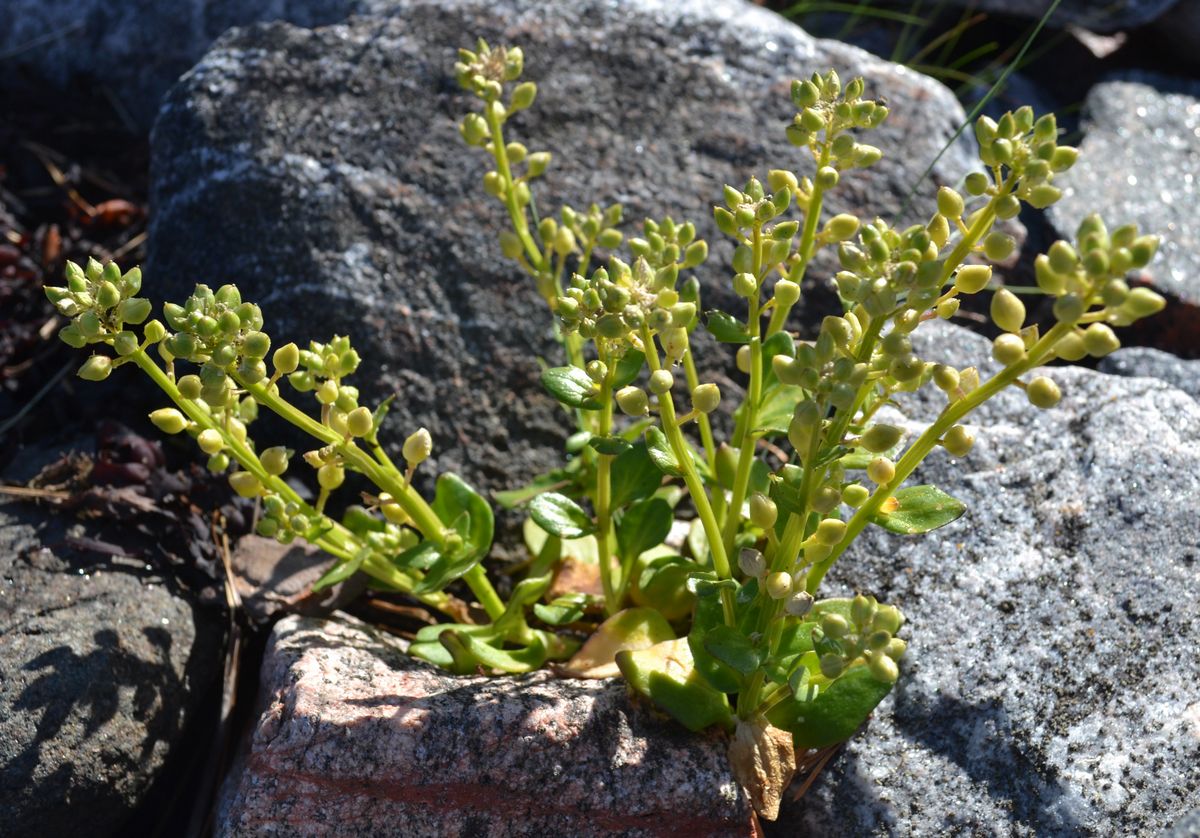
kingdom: Plantae
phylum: Tracheophyta
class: Magnoliopsida
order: Brassicales
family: Brassicaceae
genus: Cochlearia
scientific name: Cochlearia officinalis
